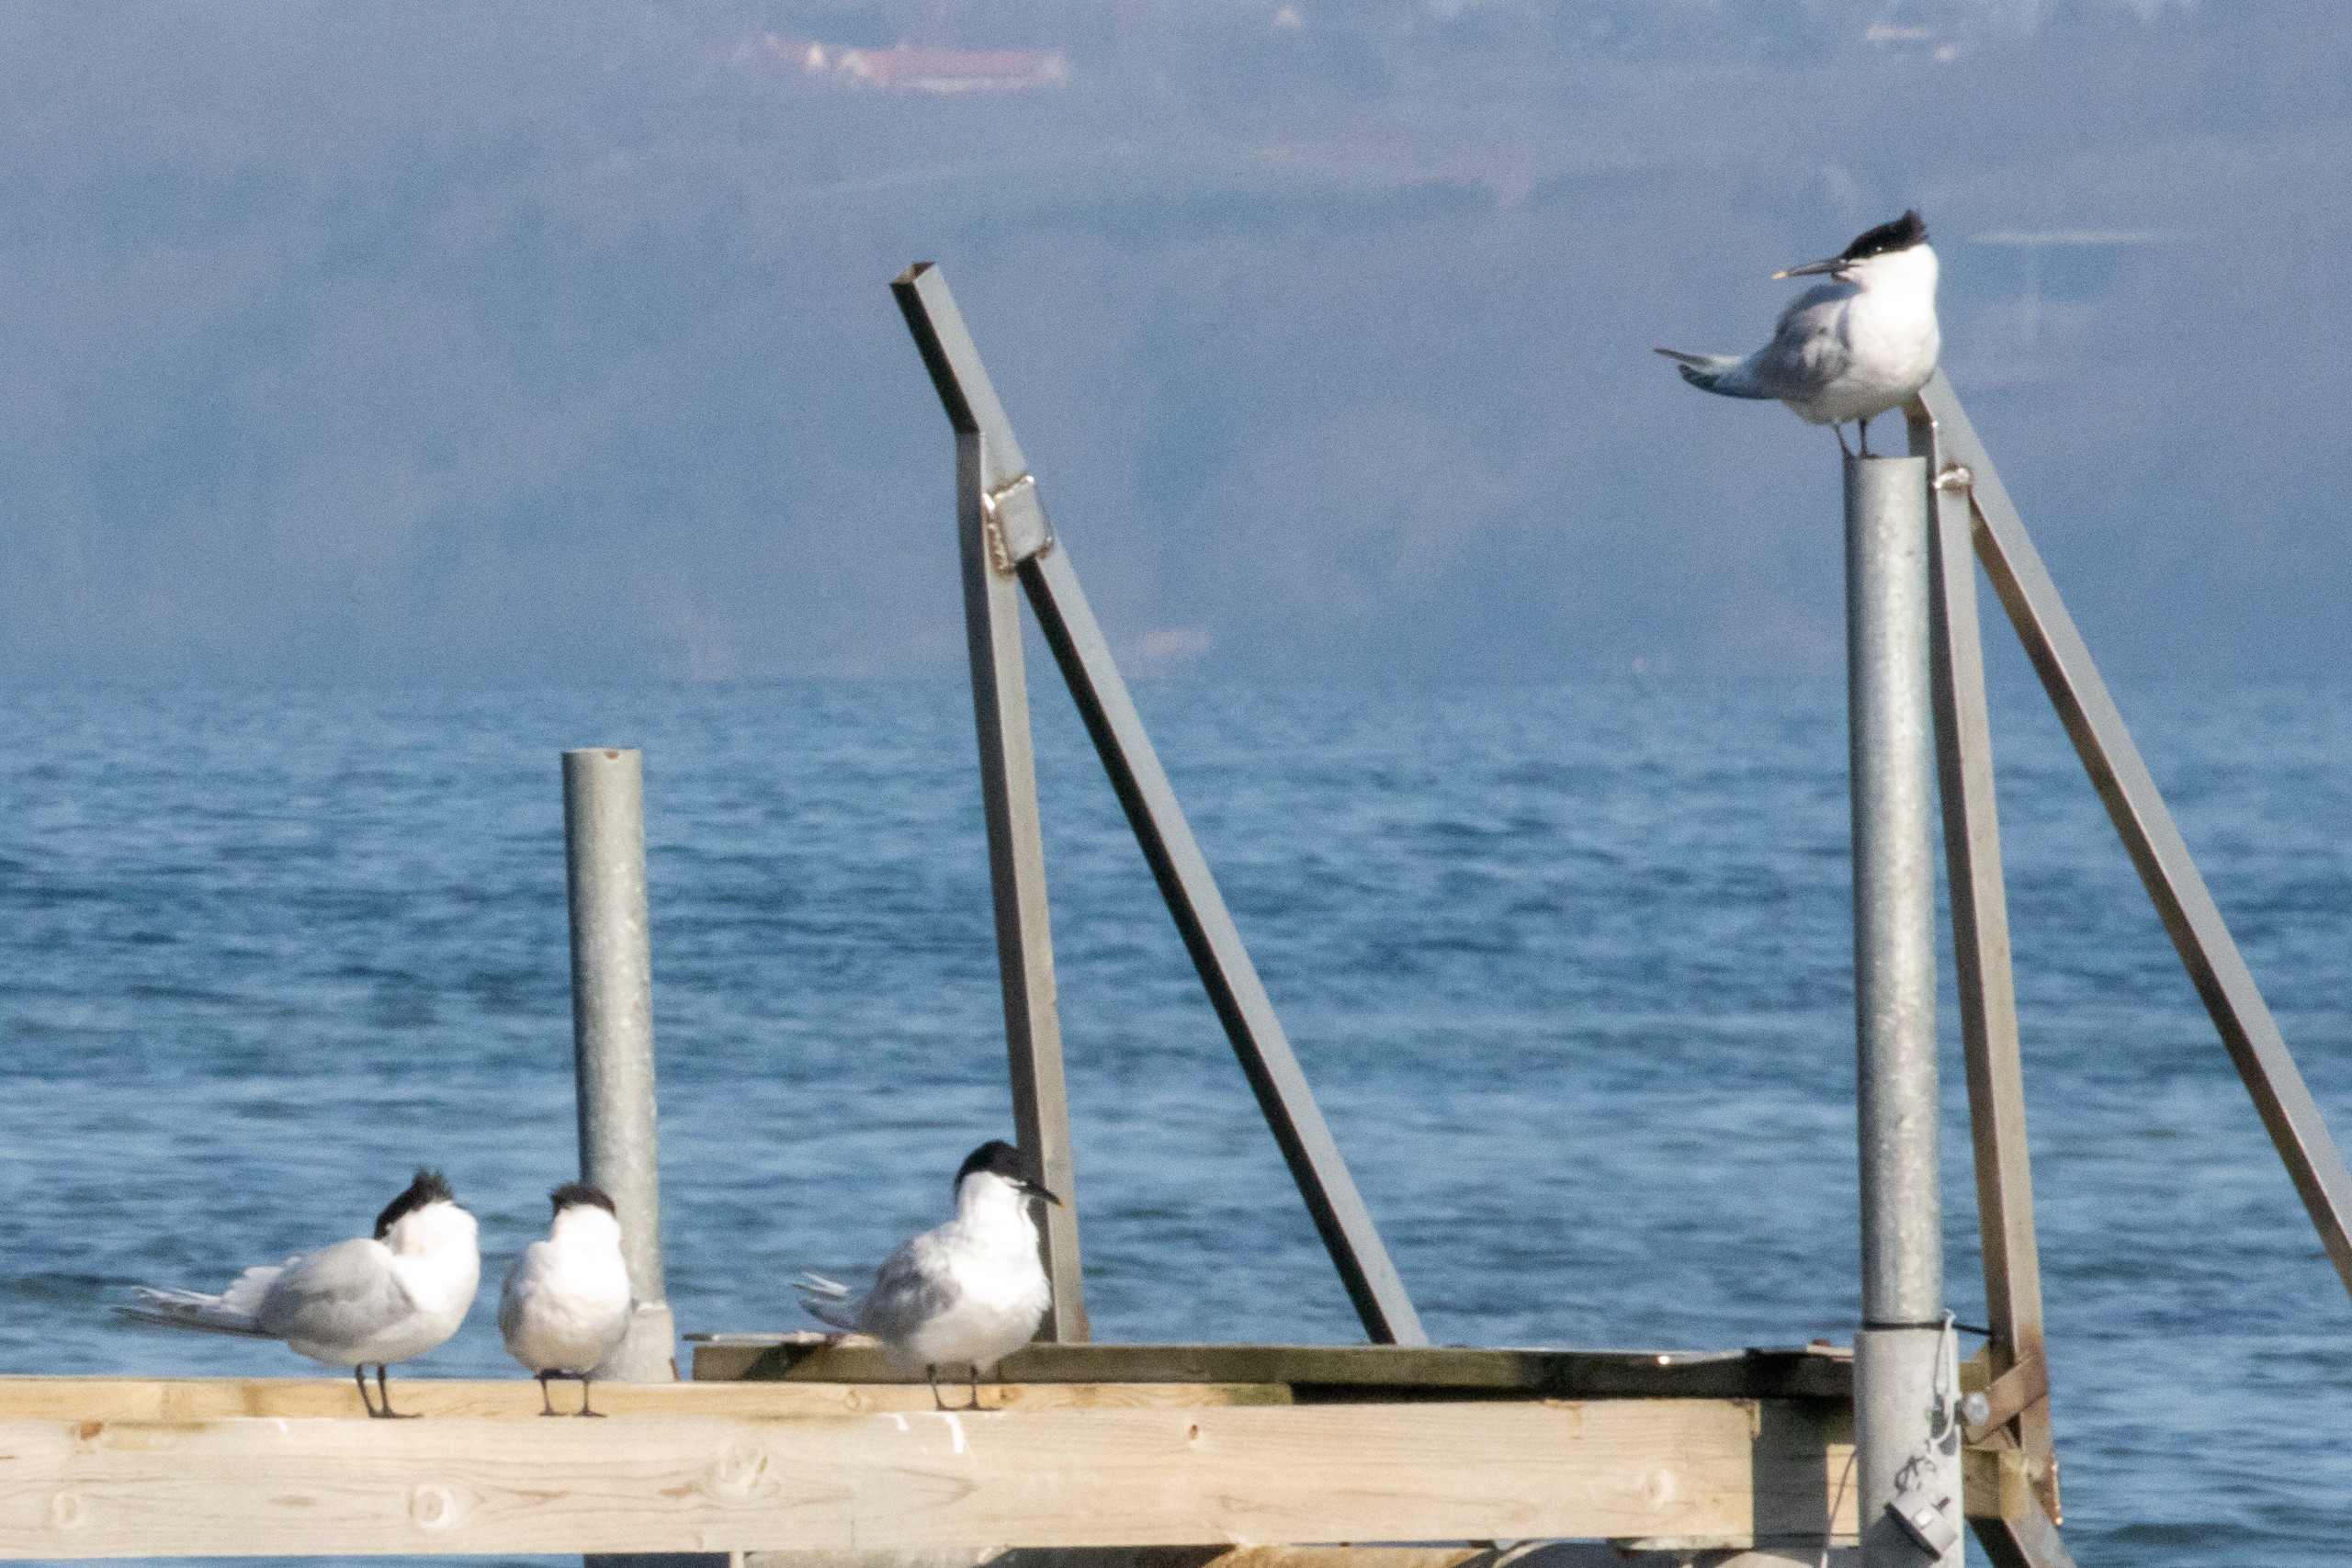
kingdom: Animalia
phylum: Chordata
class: Aves
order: Charadriiformes
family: Laridae
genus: Thalasseus
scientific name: Thalasseus sandvicensis
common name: Splitterne
